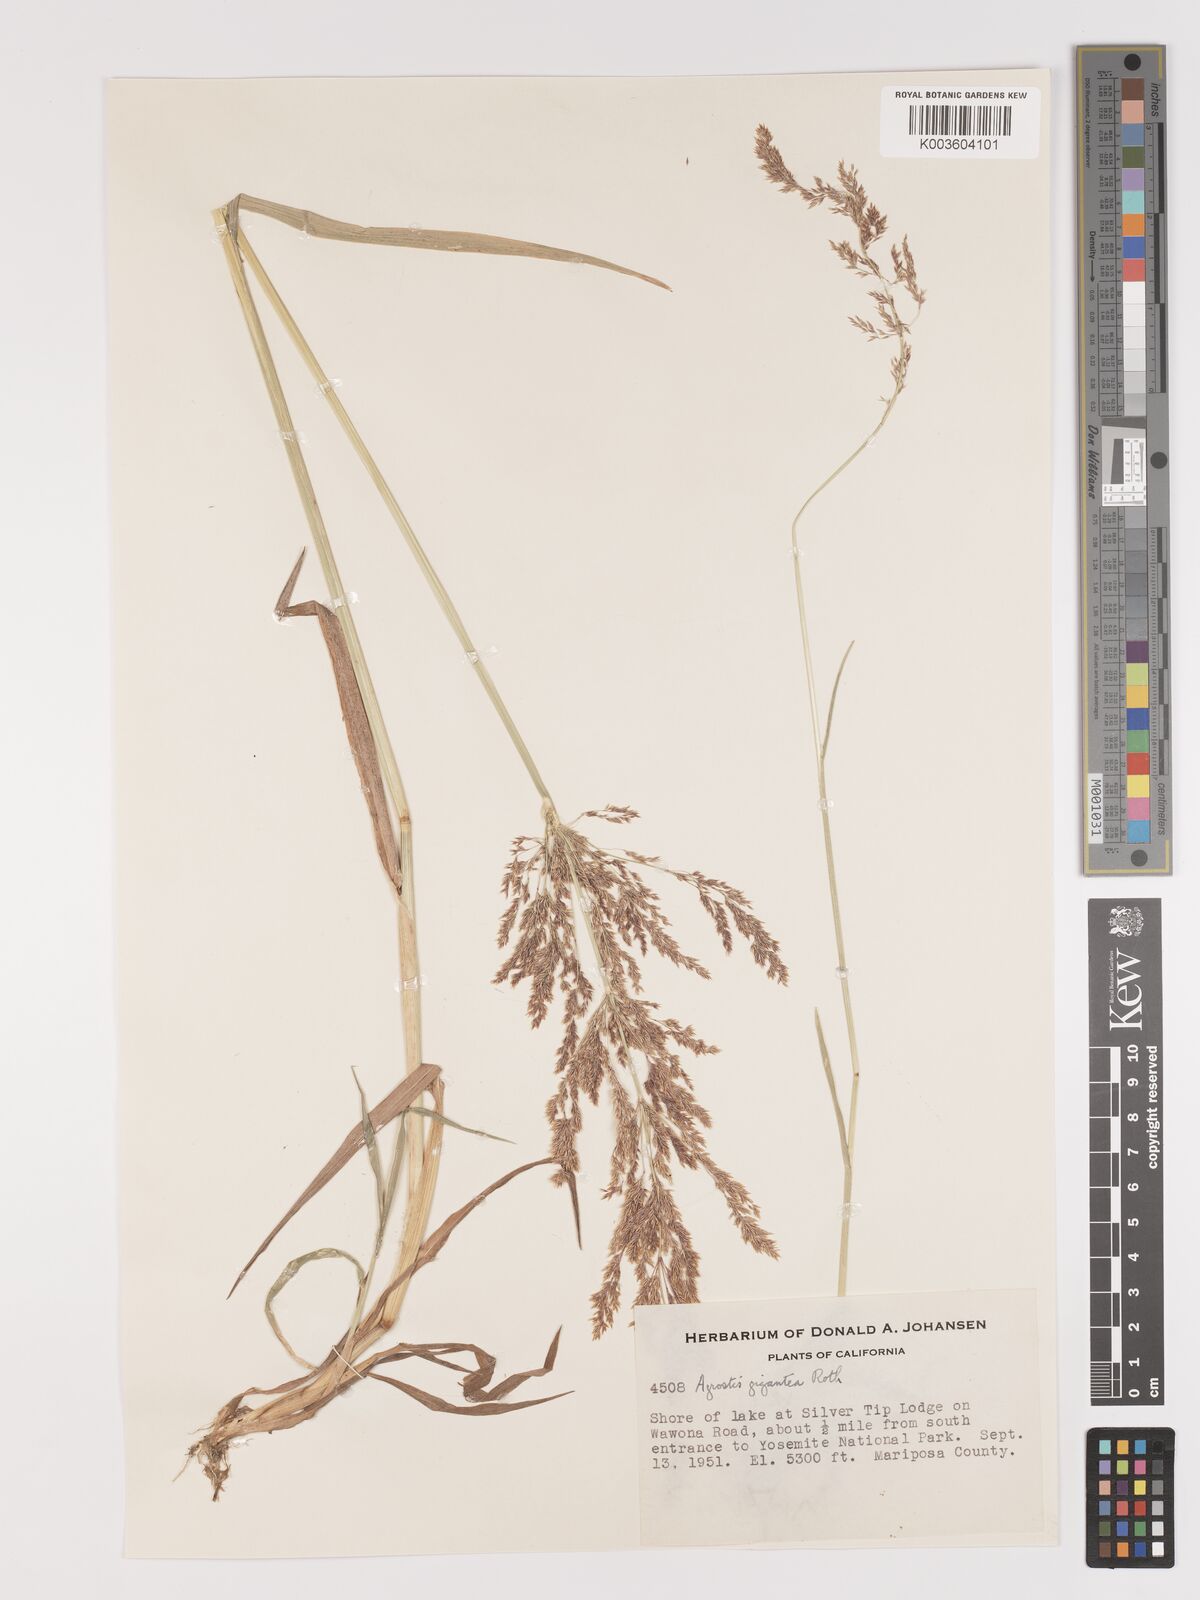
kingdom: Plantae
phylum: Tracheophyta
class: Liliopsida
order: Poales
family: Poaceae
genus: Agrostis
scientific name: Agrostis gigantea
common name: Black bent
